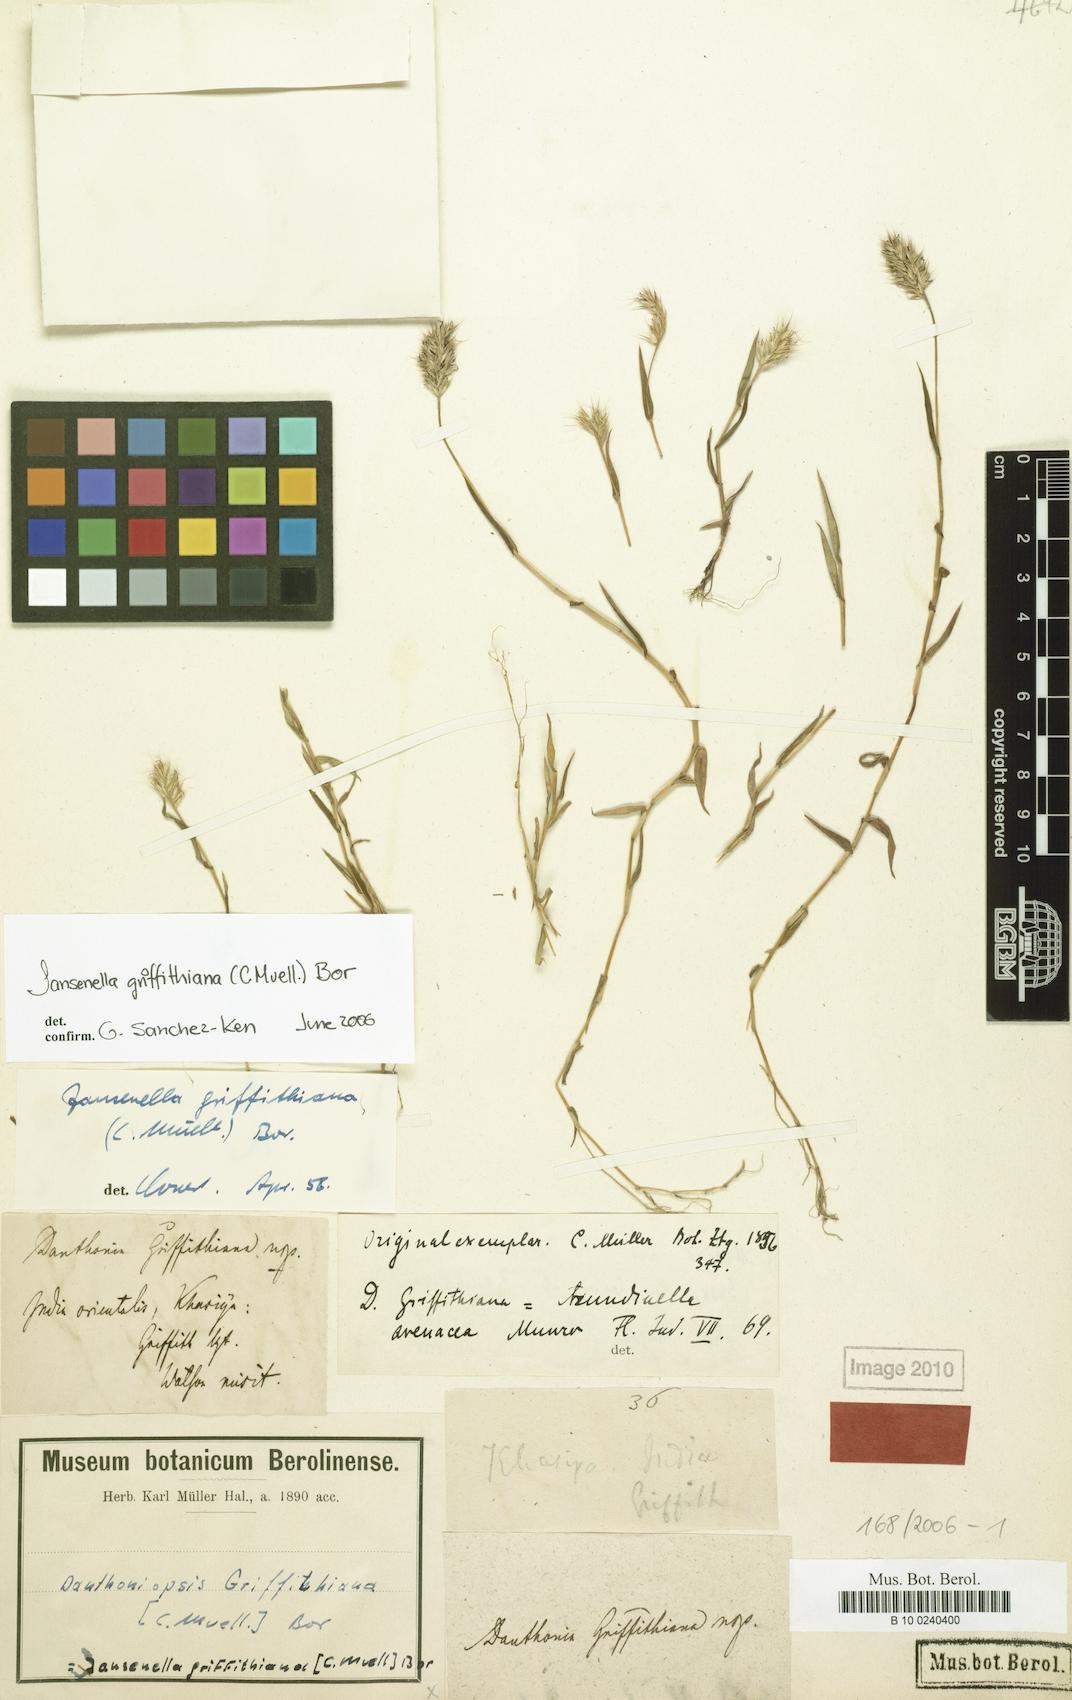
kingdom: Plantae
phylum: Tracheophyta
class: Liliopsida
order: Poales
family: Poaceae
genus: Jansenella
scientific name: Jansenella griffithiana
